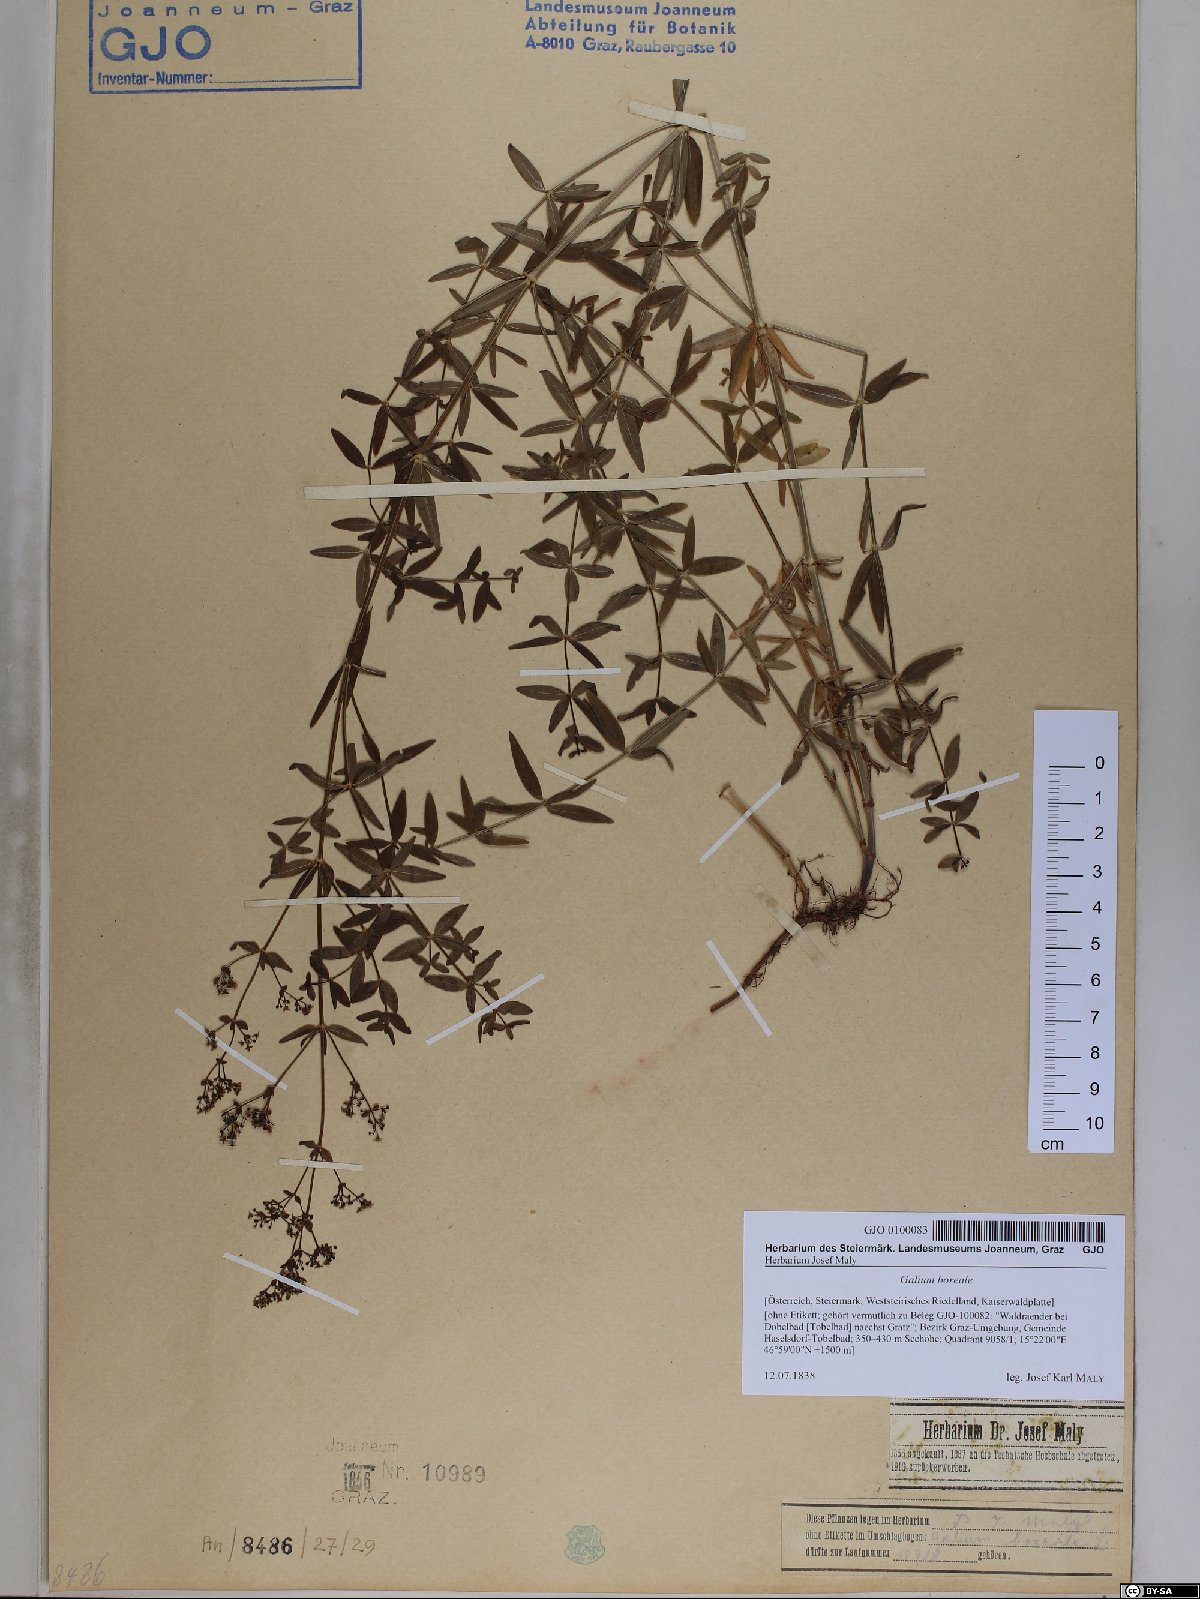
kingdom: Plantae
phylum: Tracheophyta
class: Magnoliopsida
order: Gentianales
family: Rubiaceae
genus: Galium
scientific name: Galium boreale
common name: Northern bedstraw
